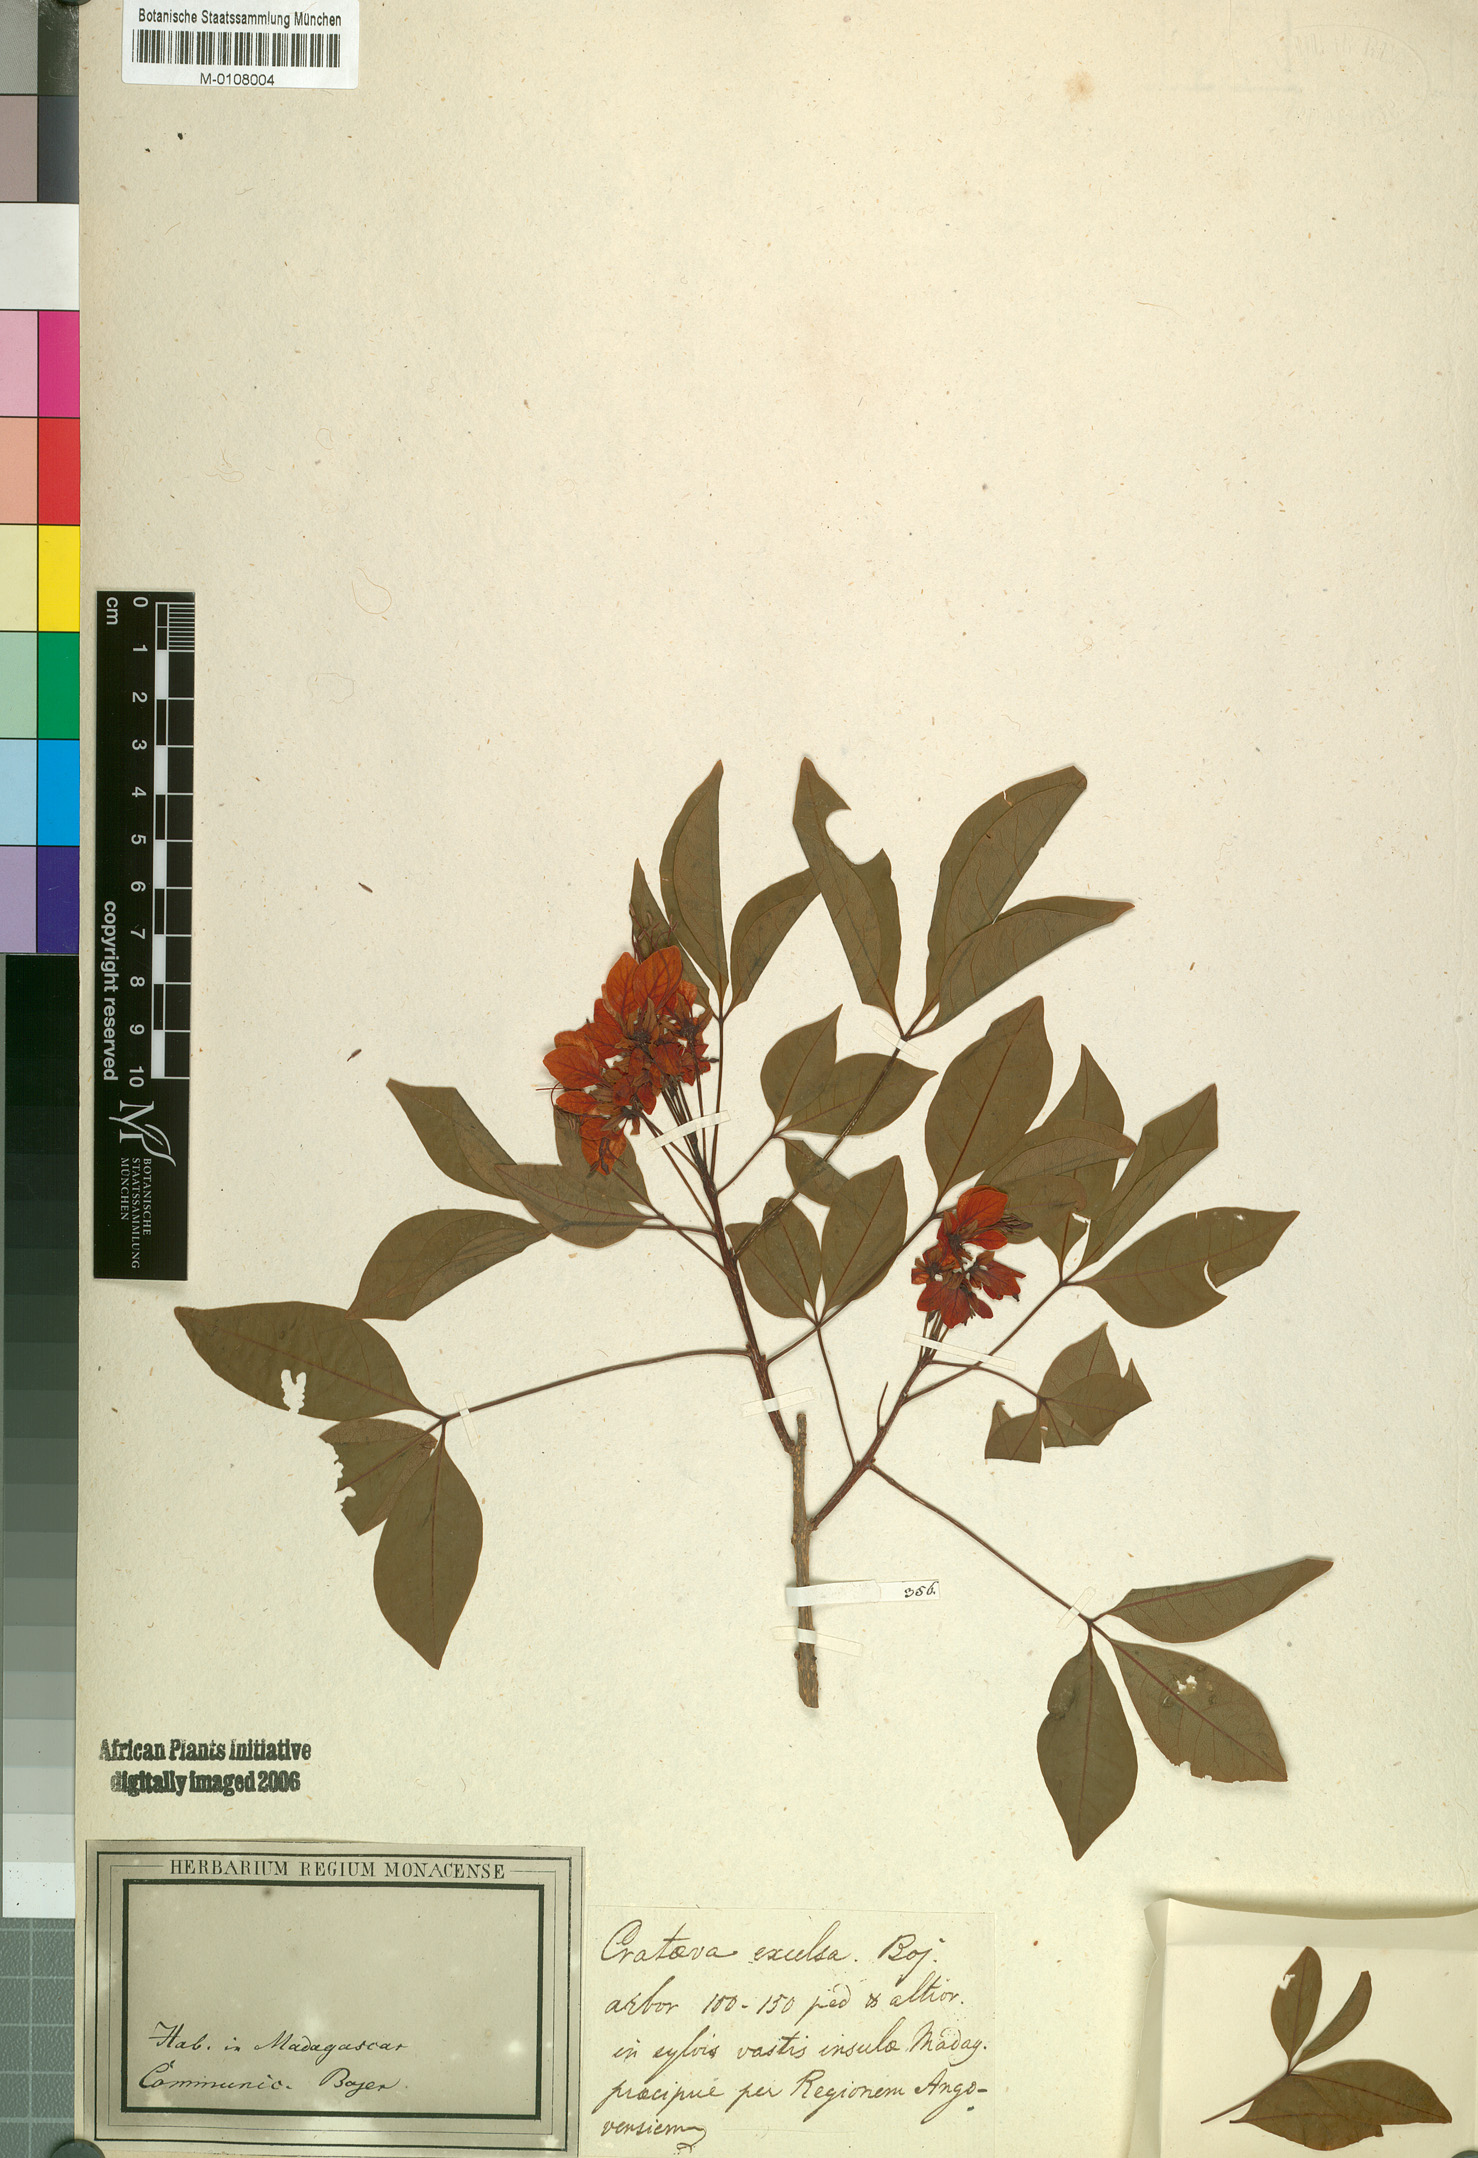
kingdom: Plantae
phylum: Tracheophyta
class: Magnoliopsida
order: Brassicales
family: Capparaceae
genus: Crateva
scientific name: Crateva excelsa
